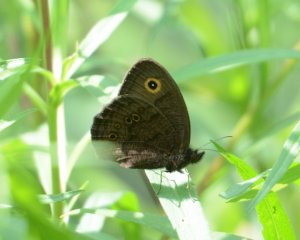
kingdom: Animalia
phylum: Arthropoda
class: Insecta
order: Lepidoptera
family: Nymphalidae
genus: Cercyonis
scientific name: Cercyonis pegala
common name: Common Wood-Nymph
